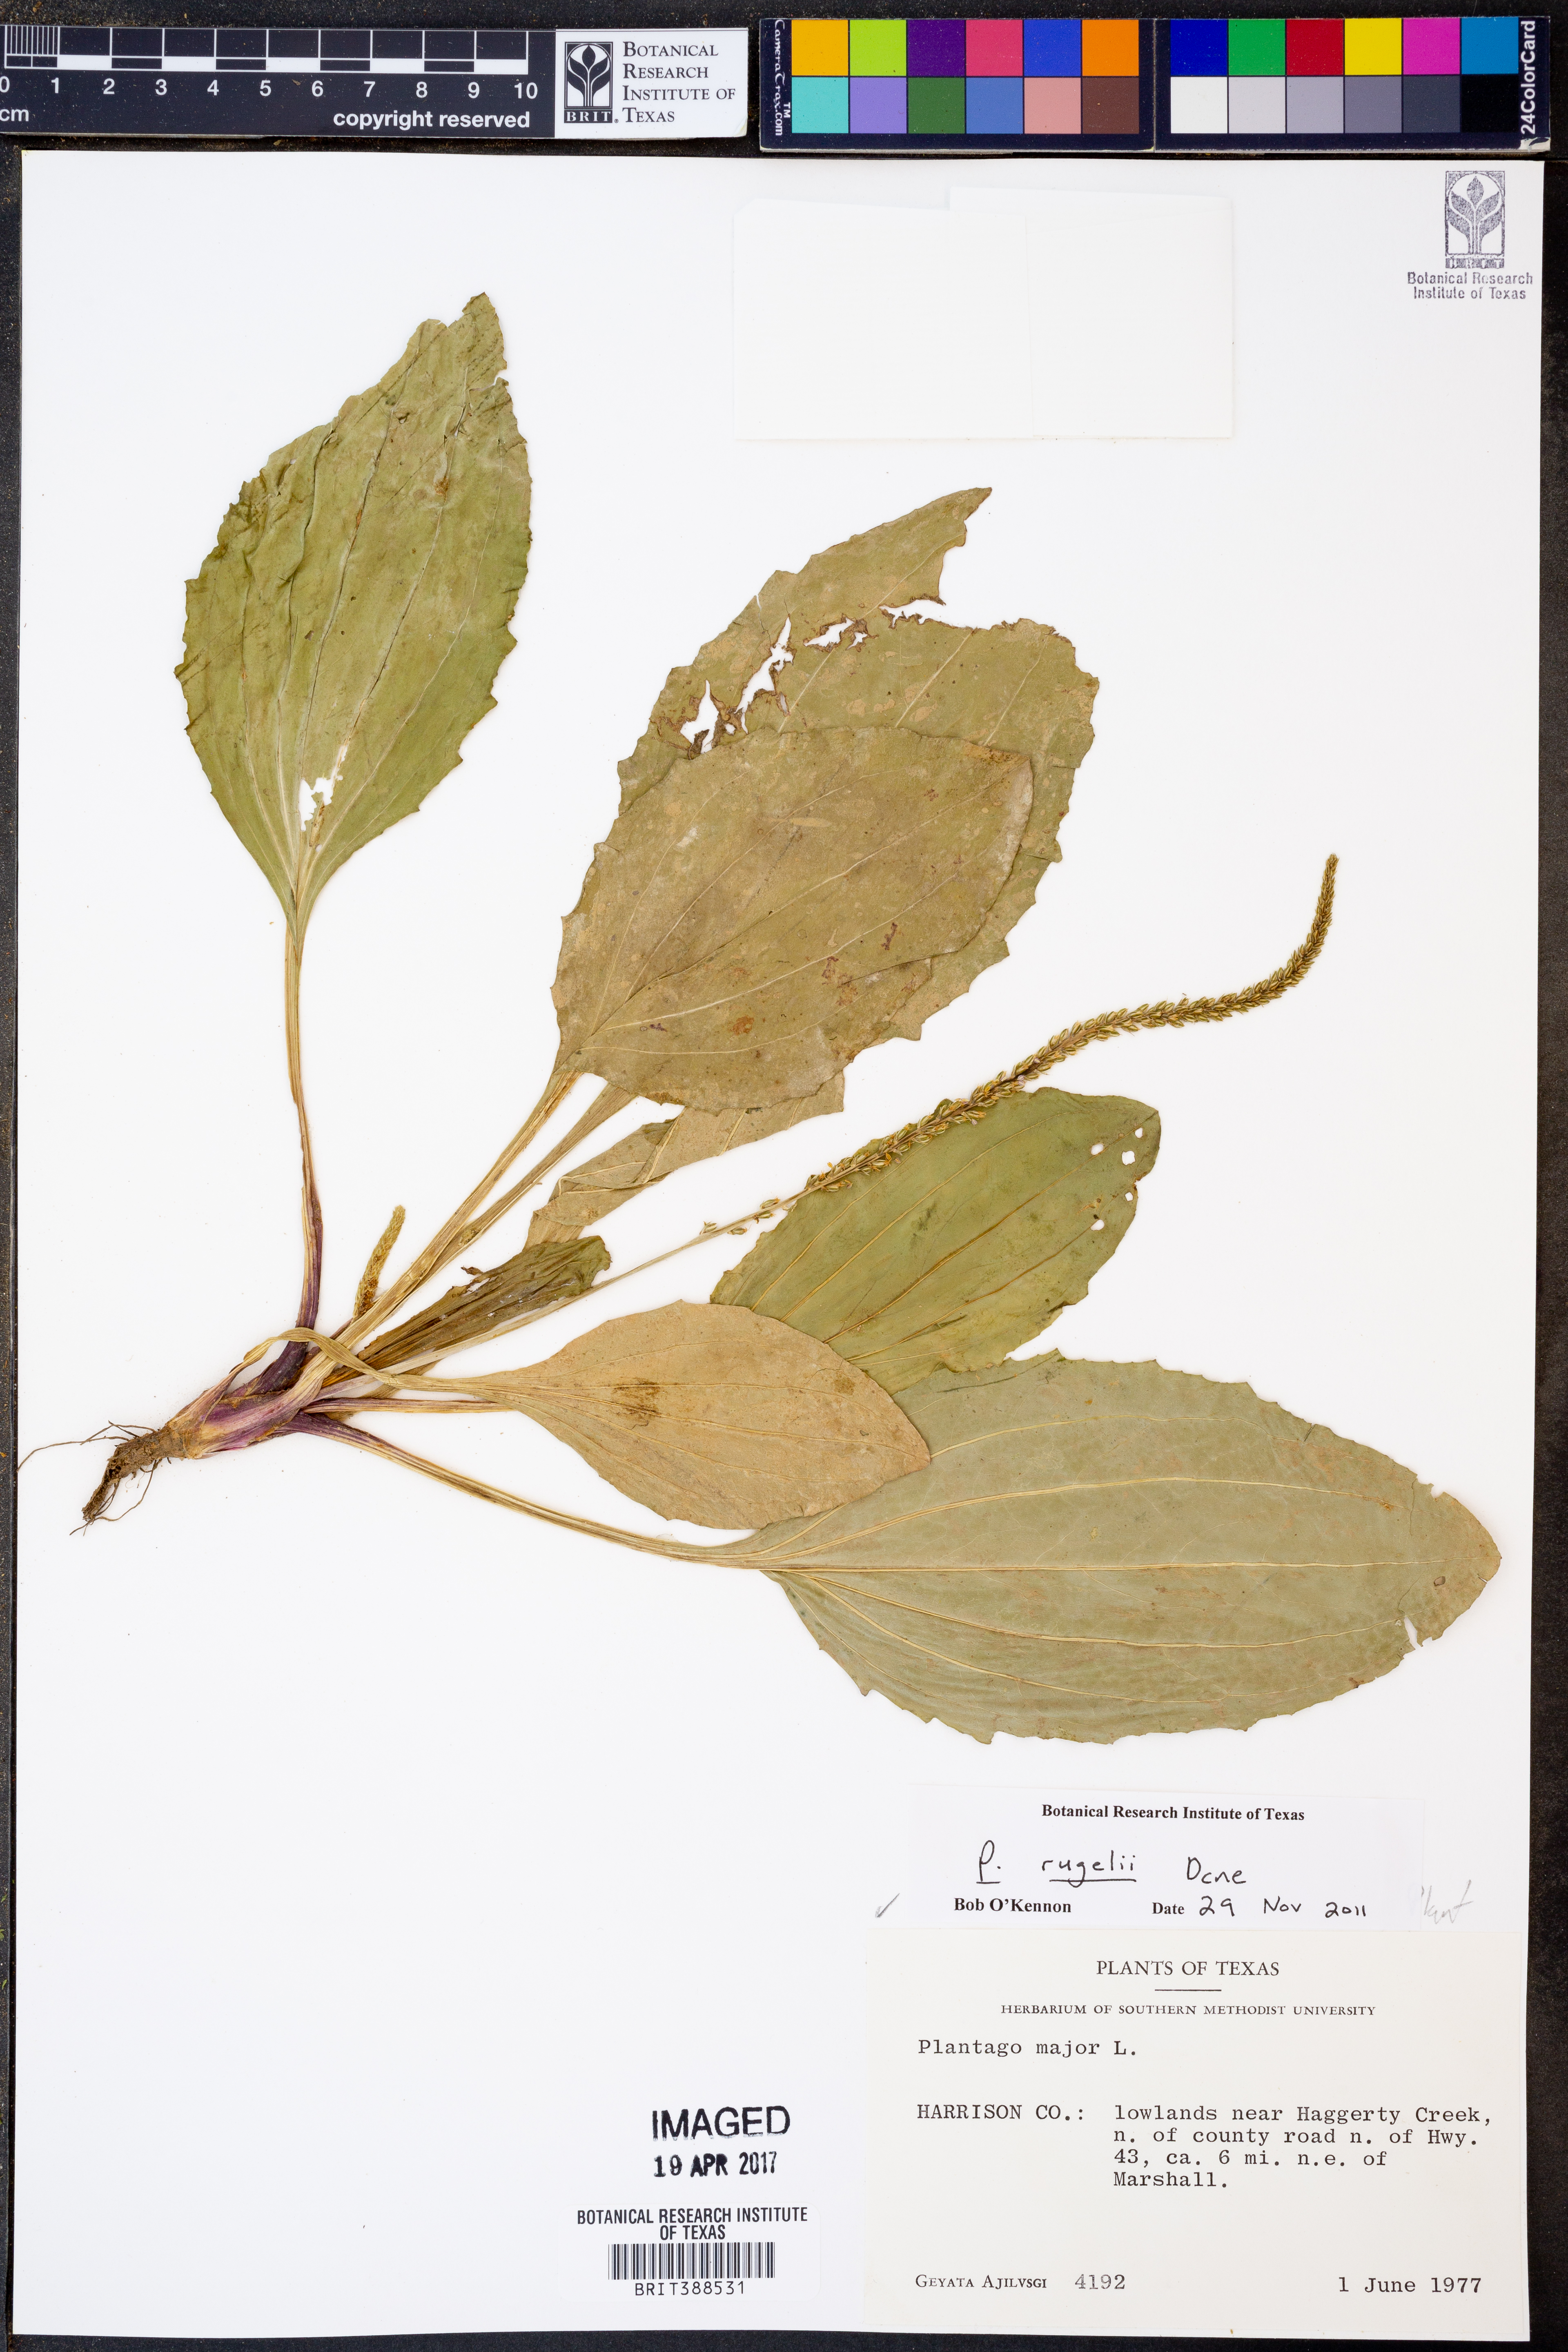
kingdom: Plantae
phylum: Tracheophyta
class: Magnoliopsida
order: Lamiales
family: Plantaginaceae
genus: Plantago
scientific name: Plantago rugelii
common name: American plantain
